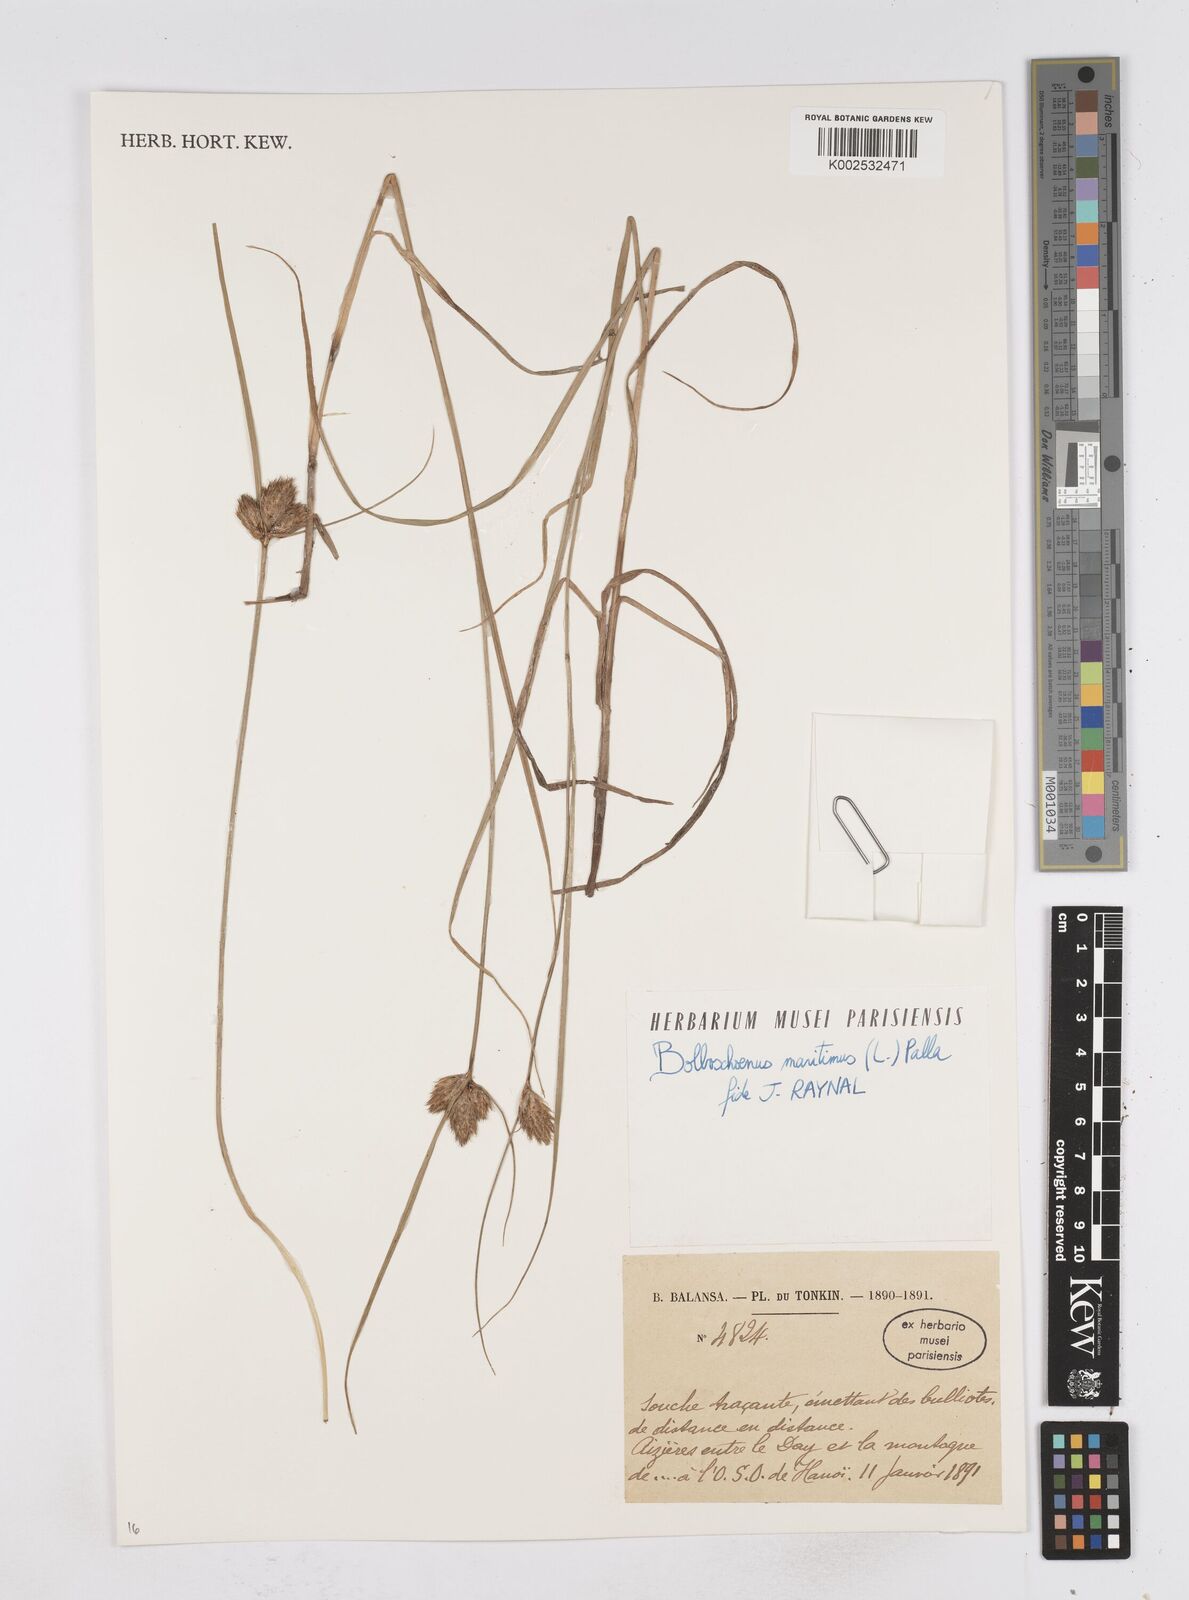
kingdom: Plantae
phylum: Tracheophyta
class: Liliopsida
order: Poales
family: Cyperaceae
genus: Bolboschoenus
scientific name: Bolboschoenus maritimus
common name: Sea club-rush
